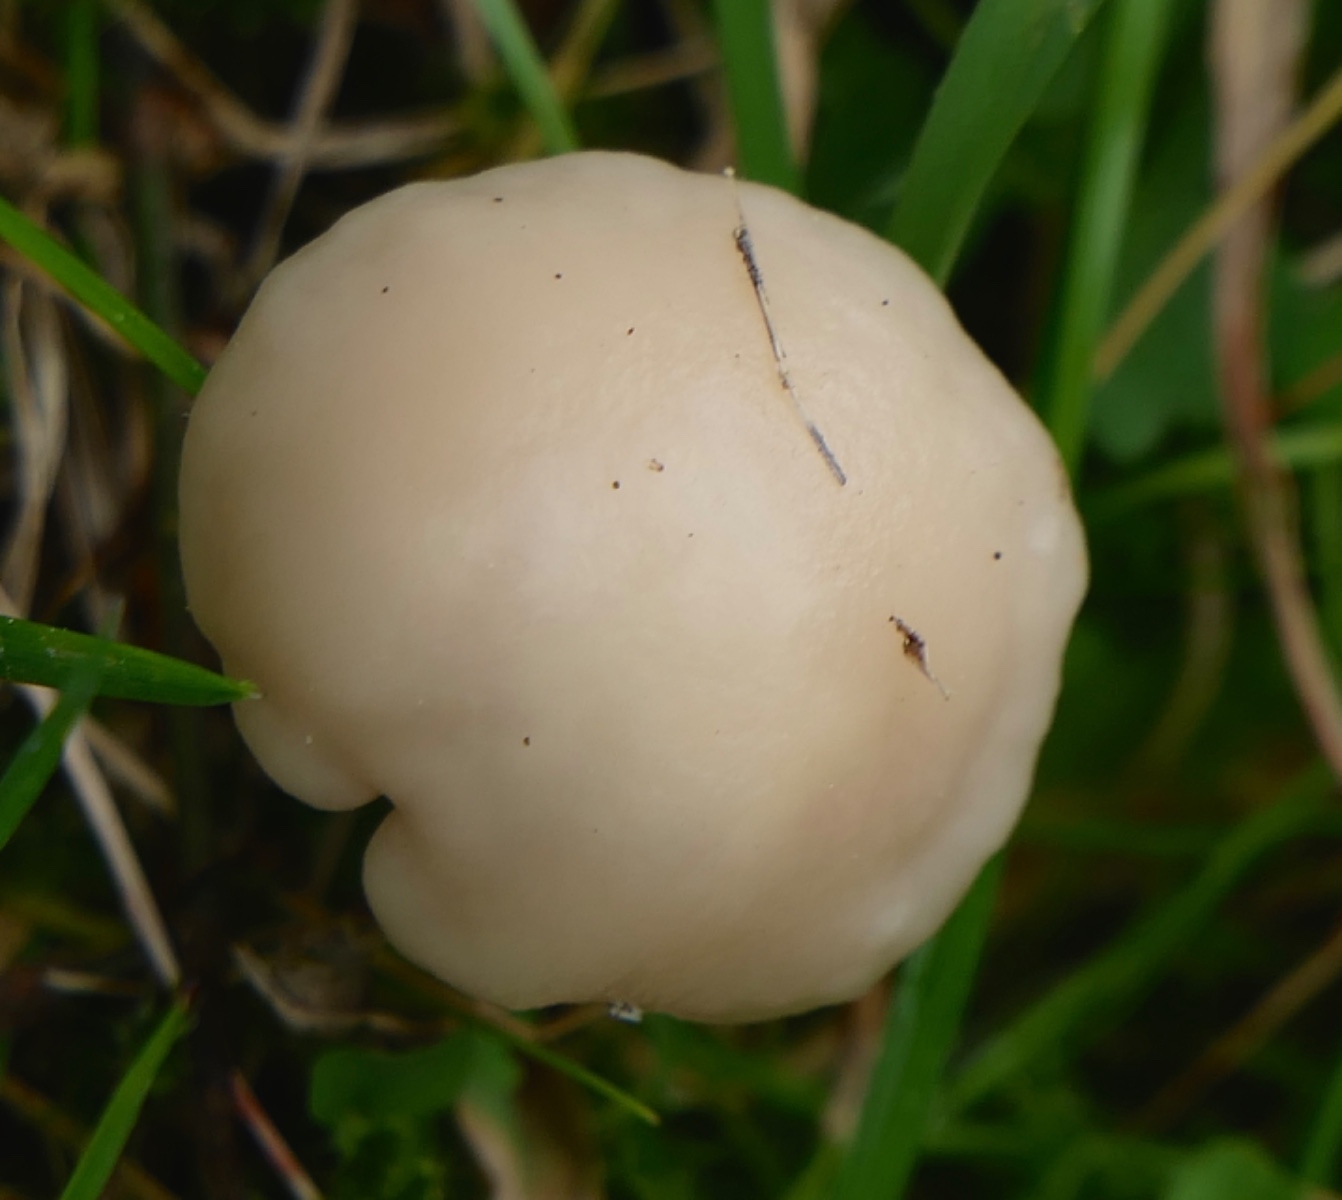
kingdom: Fungi
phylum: Basidiomycota
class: Agaricomycetes
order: Agaricales
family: Hygrophoraceae
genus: Cuphophyllus
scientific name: Cuphophyllus
